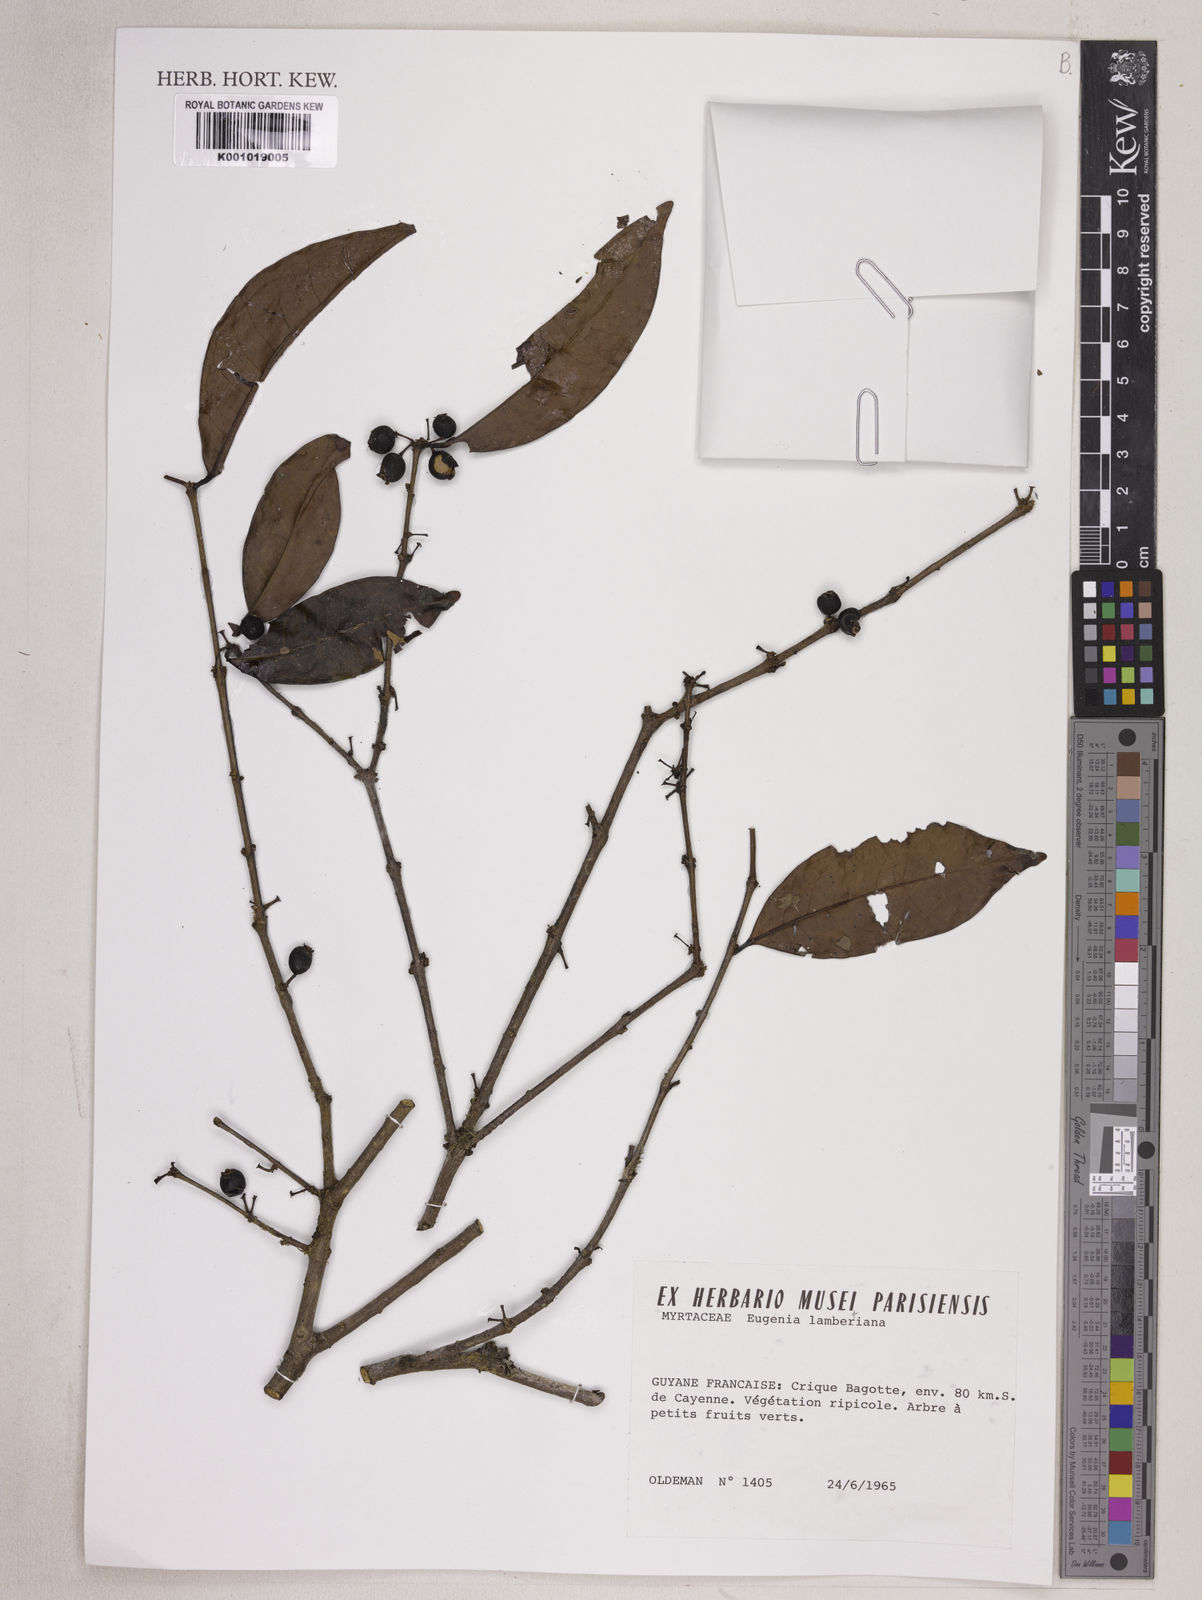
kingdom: Plantae
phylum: Tracheophyta
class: Magnoliopsida
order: Myrtales
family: Myrtaceae
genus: Eugenia
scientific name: Eugenia lambertiana
